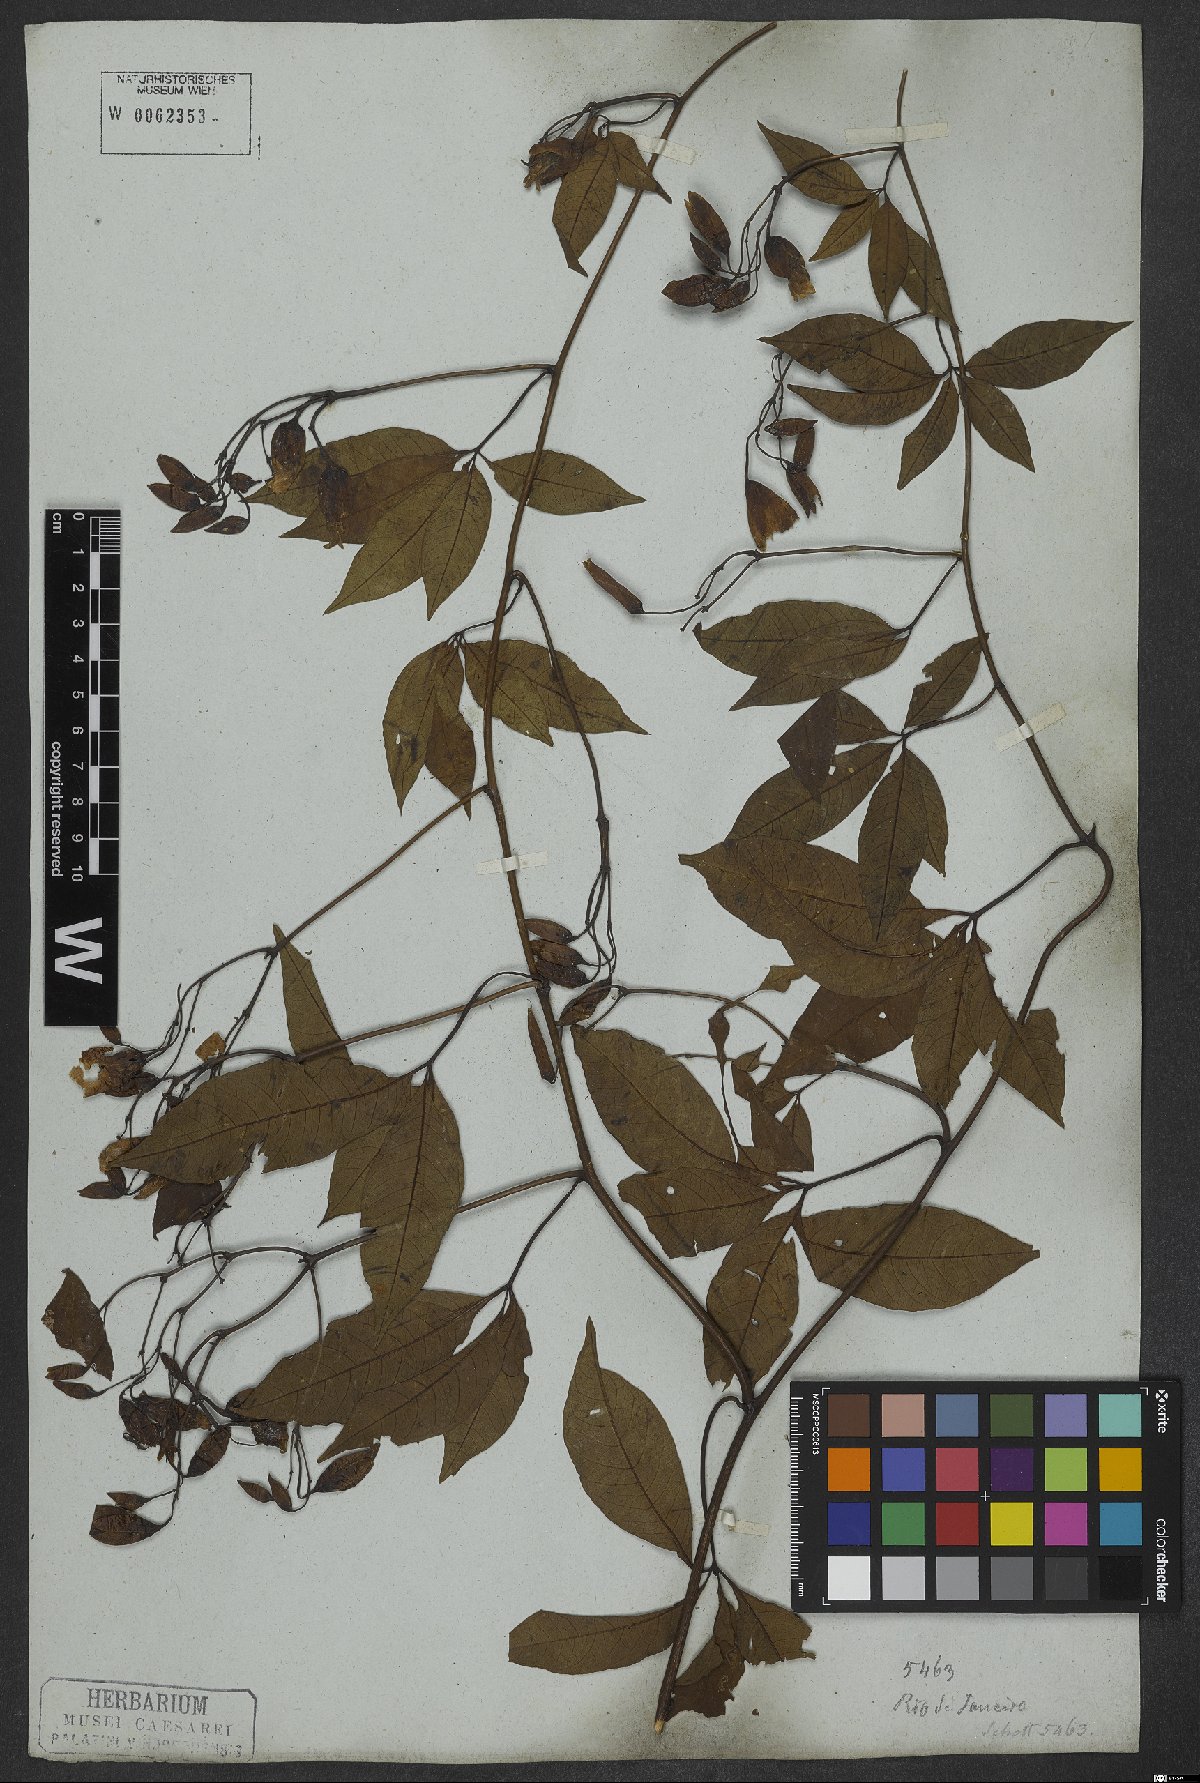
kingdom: Plantae
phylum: Tracheophyta
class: Magnoliopsida
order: Solanales
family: Convolvulaceae
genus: Distimake
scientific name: Distimake macrocalyx
